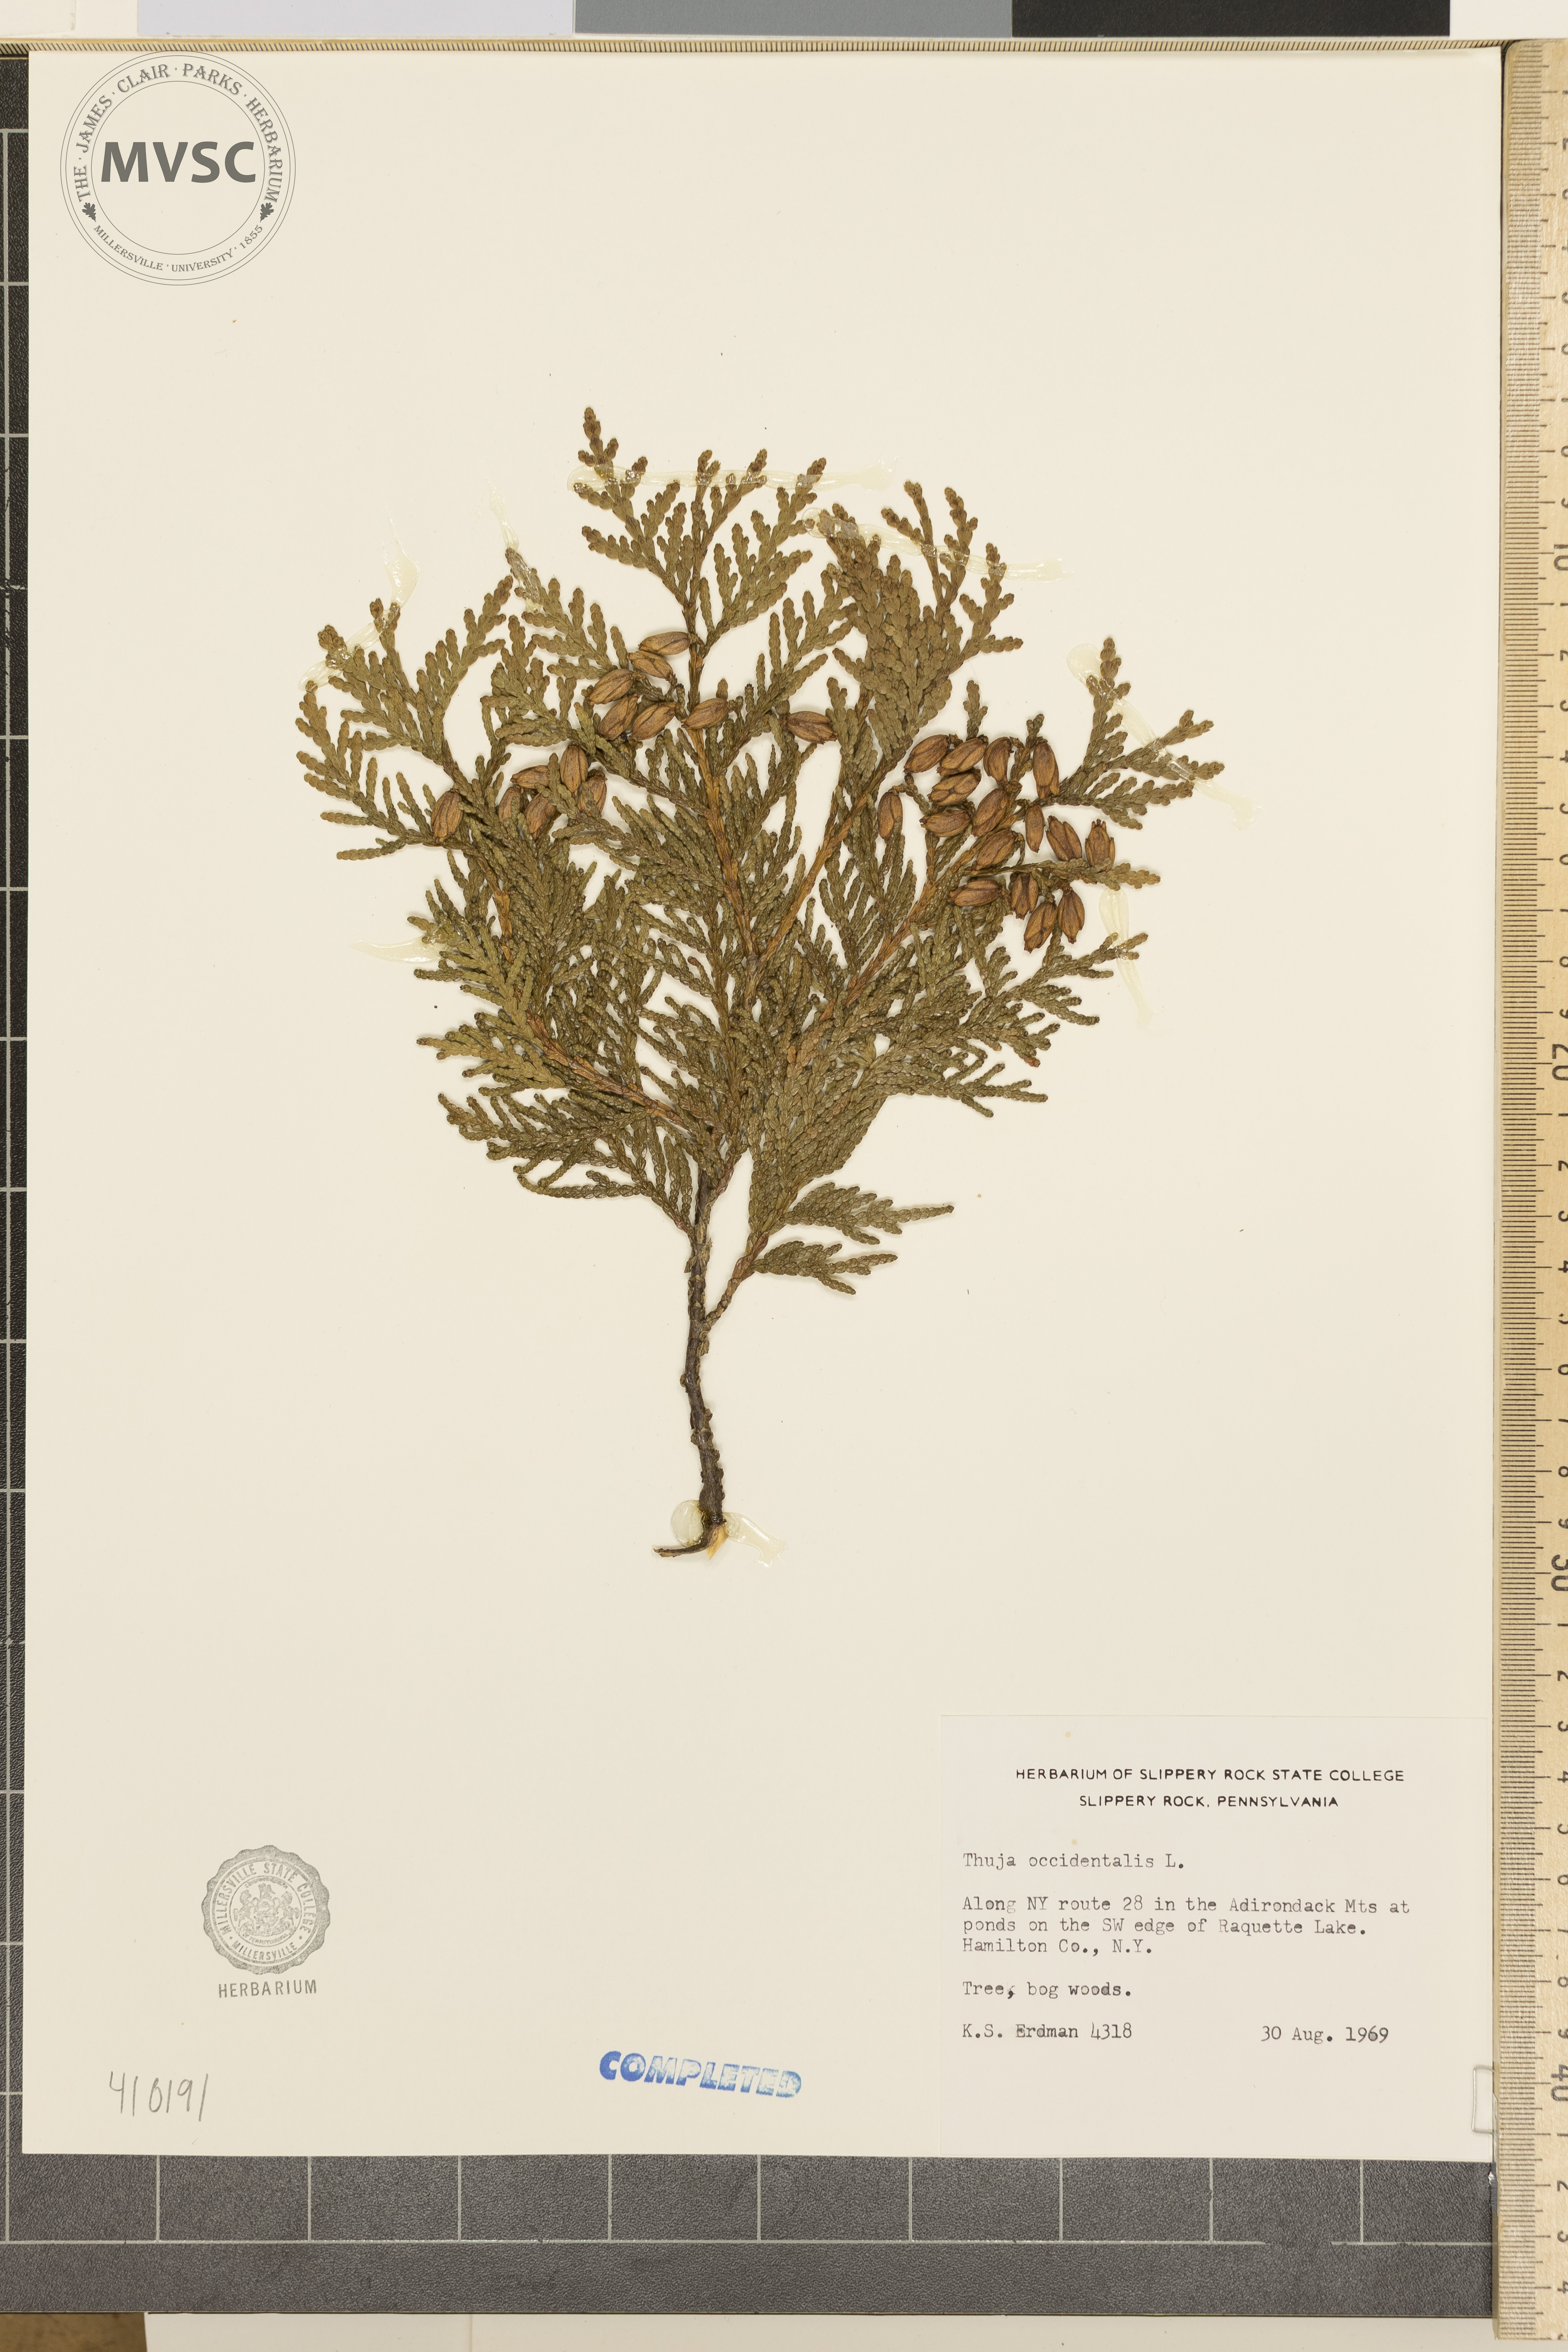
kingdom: Plantae
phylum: Tracheophyta
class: Pinopsida
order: Pinales
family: Cupressaceae
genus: Thuja
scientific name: Thuja occidentalis
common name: Northern white-cedar
